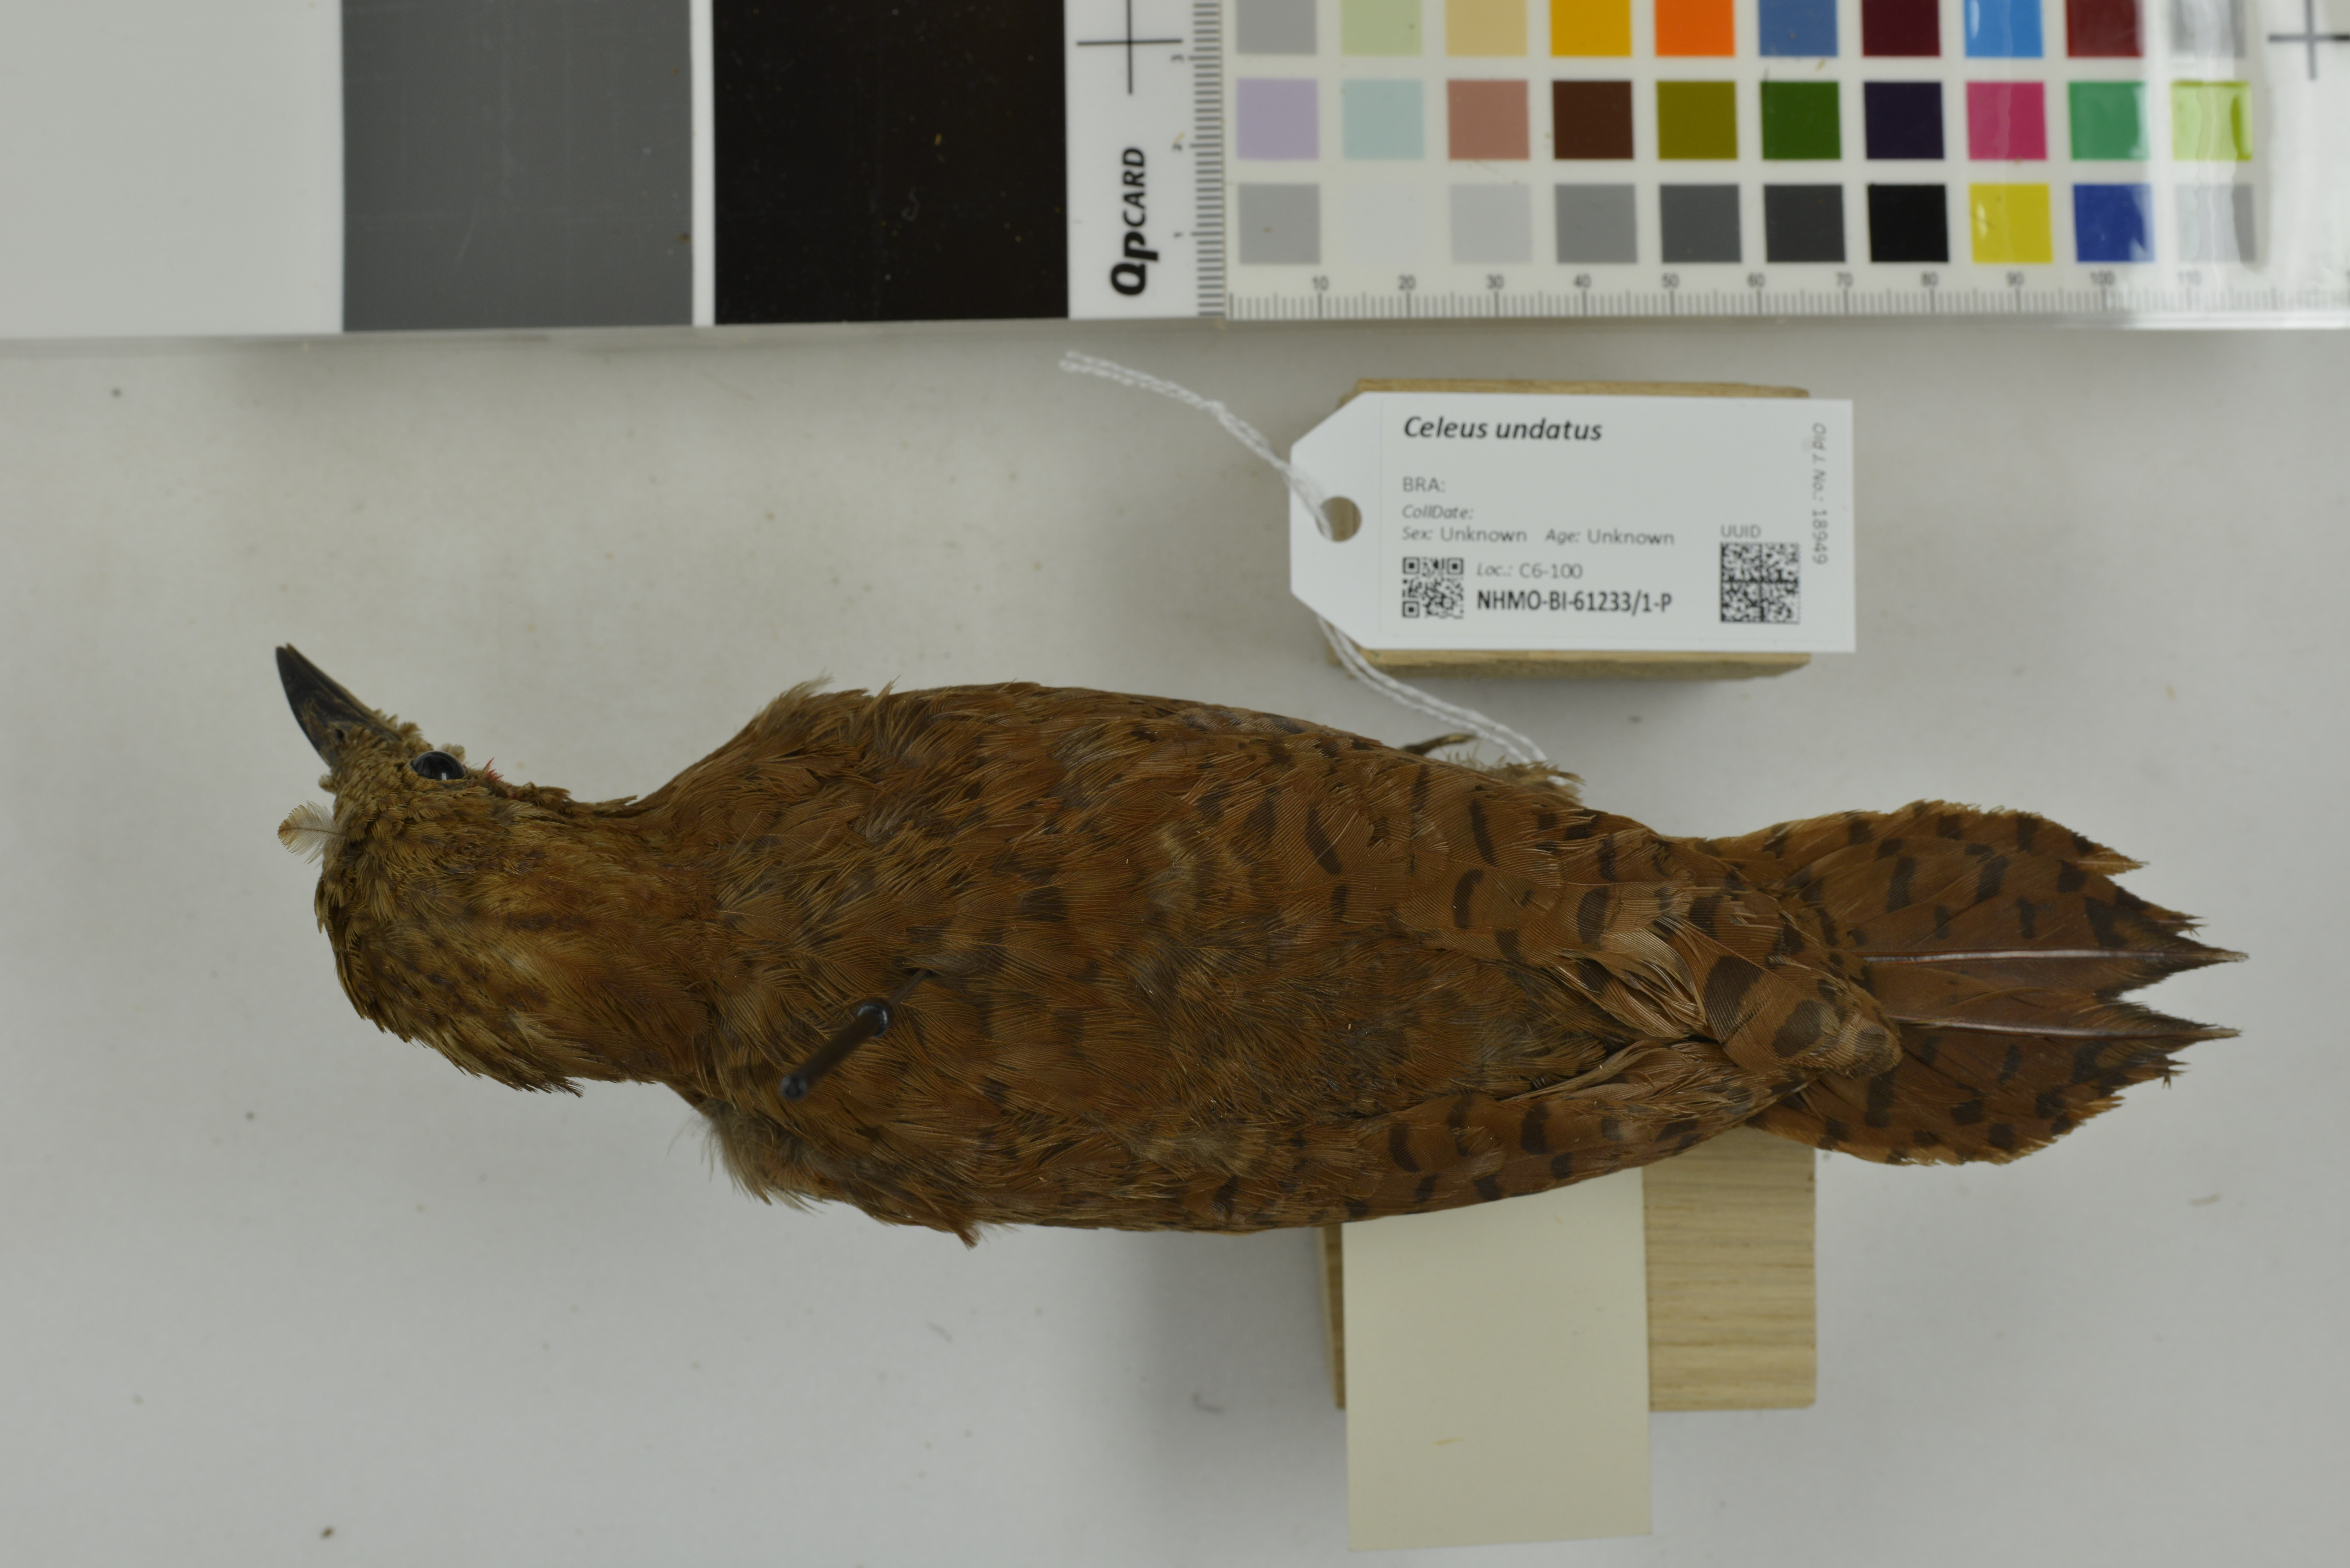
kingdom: Animalia
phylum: Chordata
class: Aves
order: Piciformes
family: Picidae
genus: Celeus
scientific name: Celeus undatus
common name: Waved woodpecker
